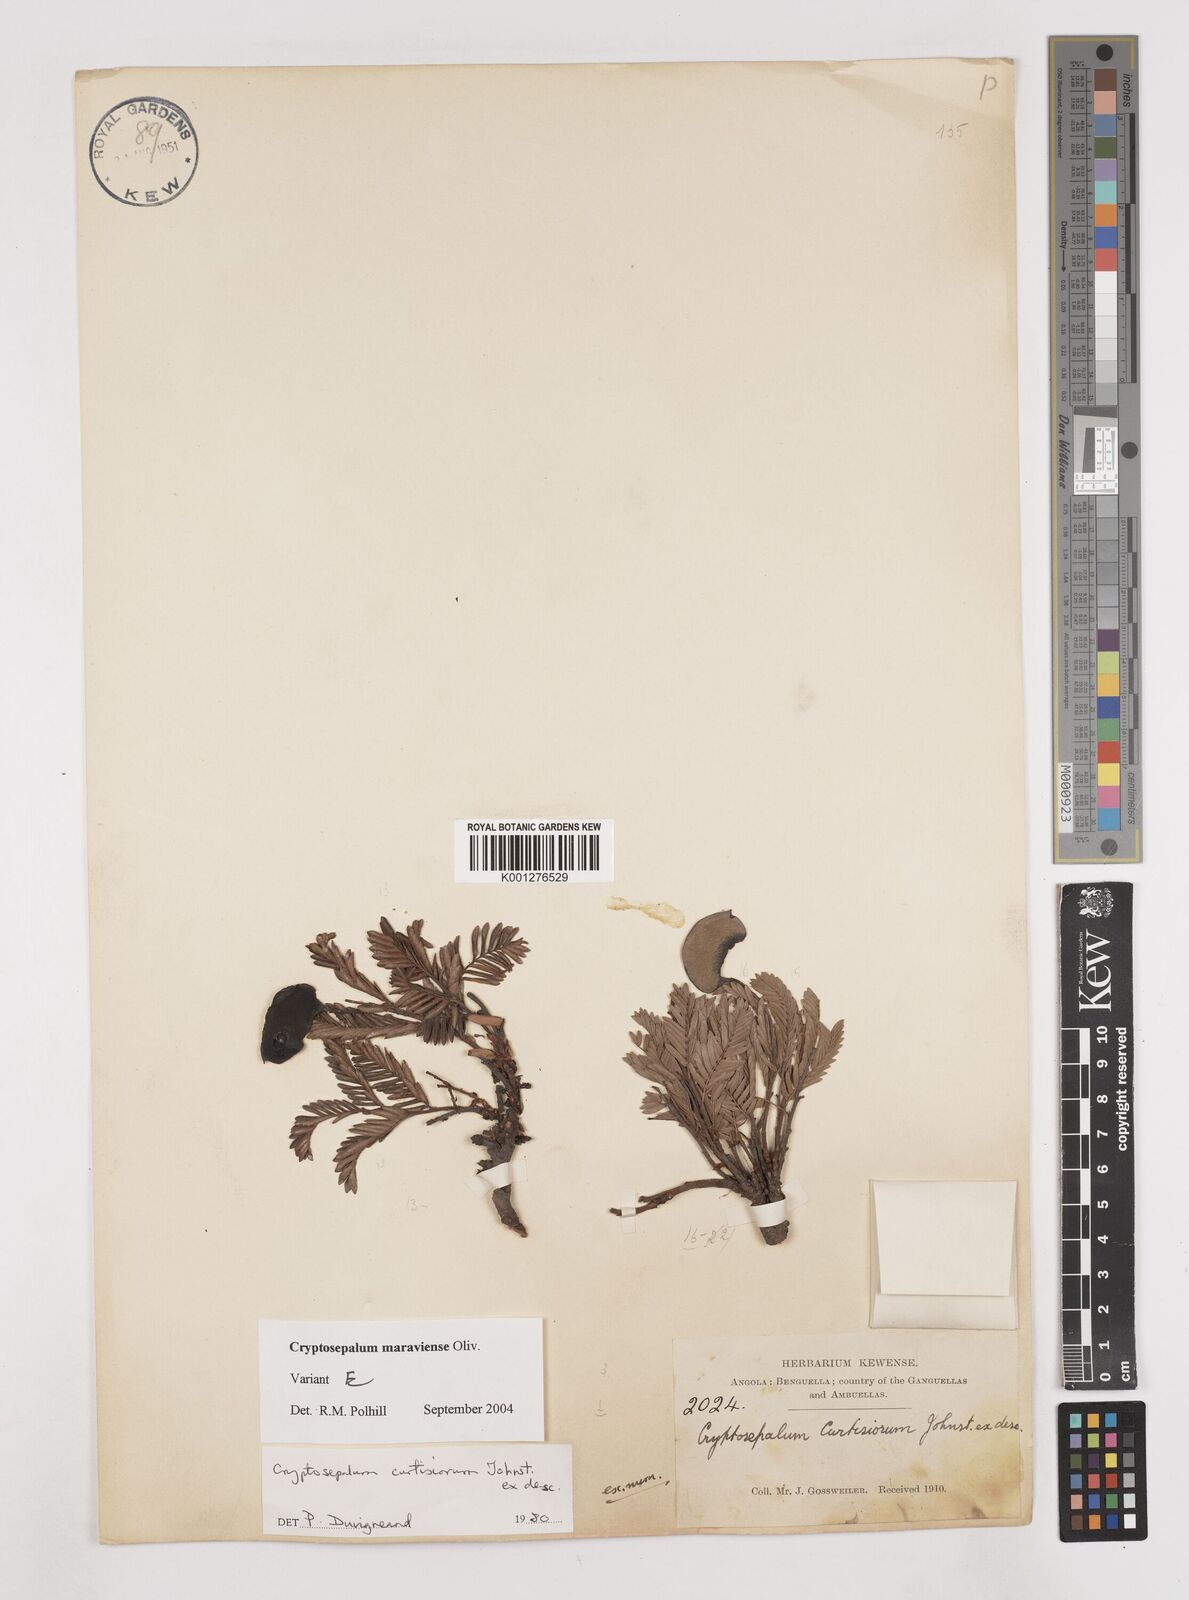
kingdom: Plantae
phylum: Tracheophyta
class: Magnoliopsida
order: Fabales
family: Fabaceae
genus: Cryptosepalum
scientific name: Cryptosepalum maraviense
